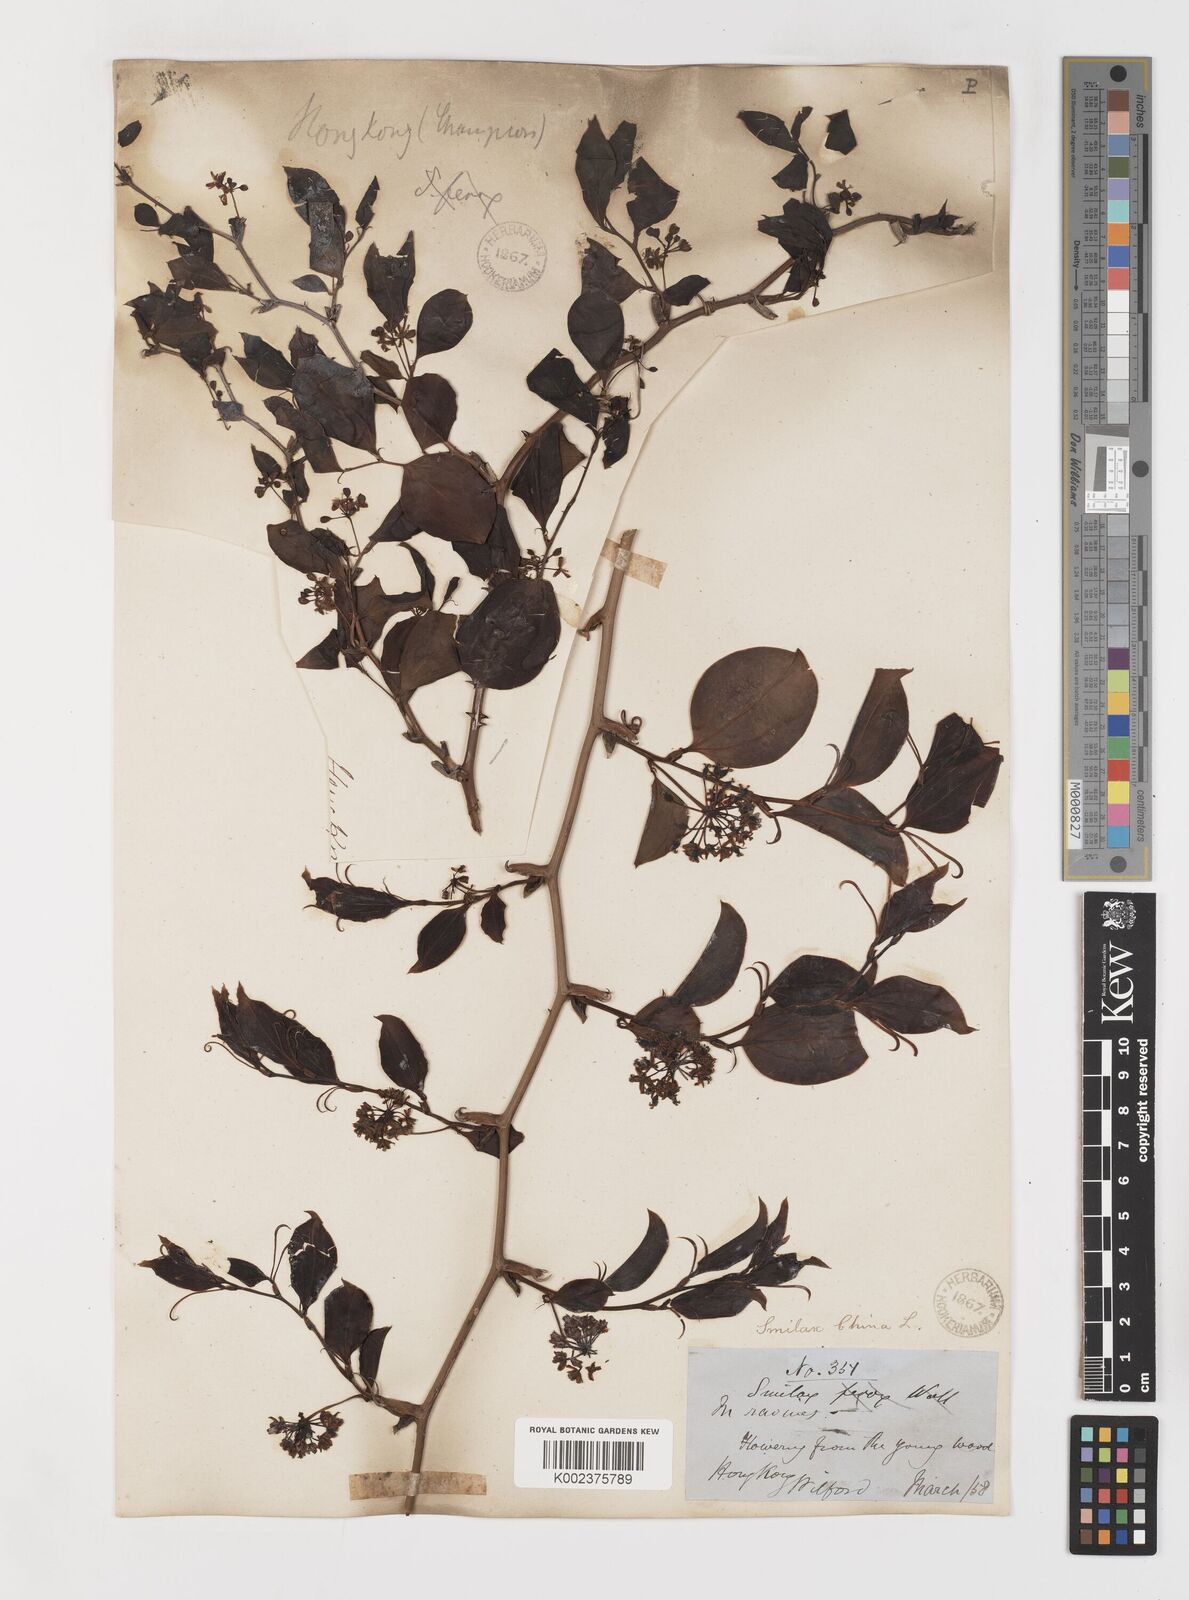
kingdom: Plantae
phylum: Tracheophyta
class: Liliopsida
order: Liliales
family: Smilacaceae
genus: Smilax
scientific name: Smilax china
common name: Chinaroot
